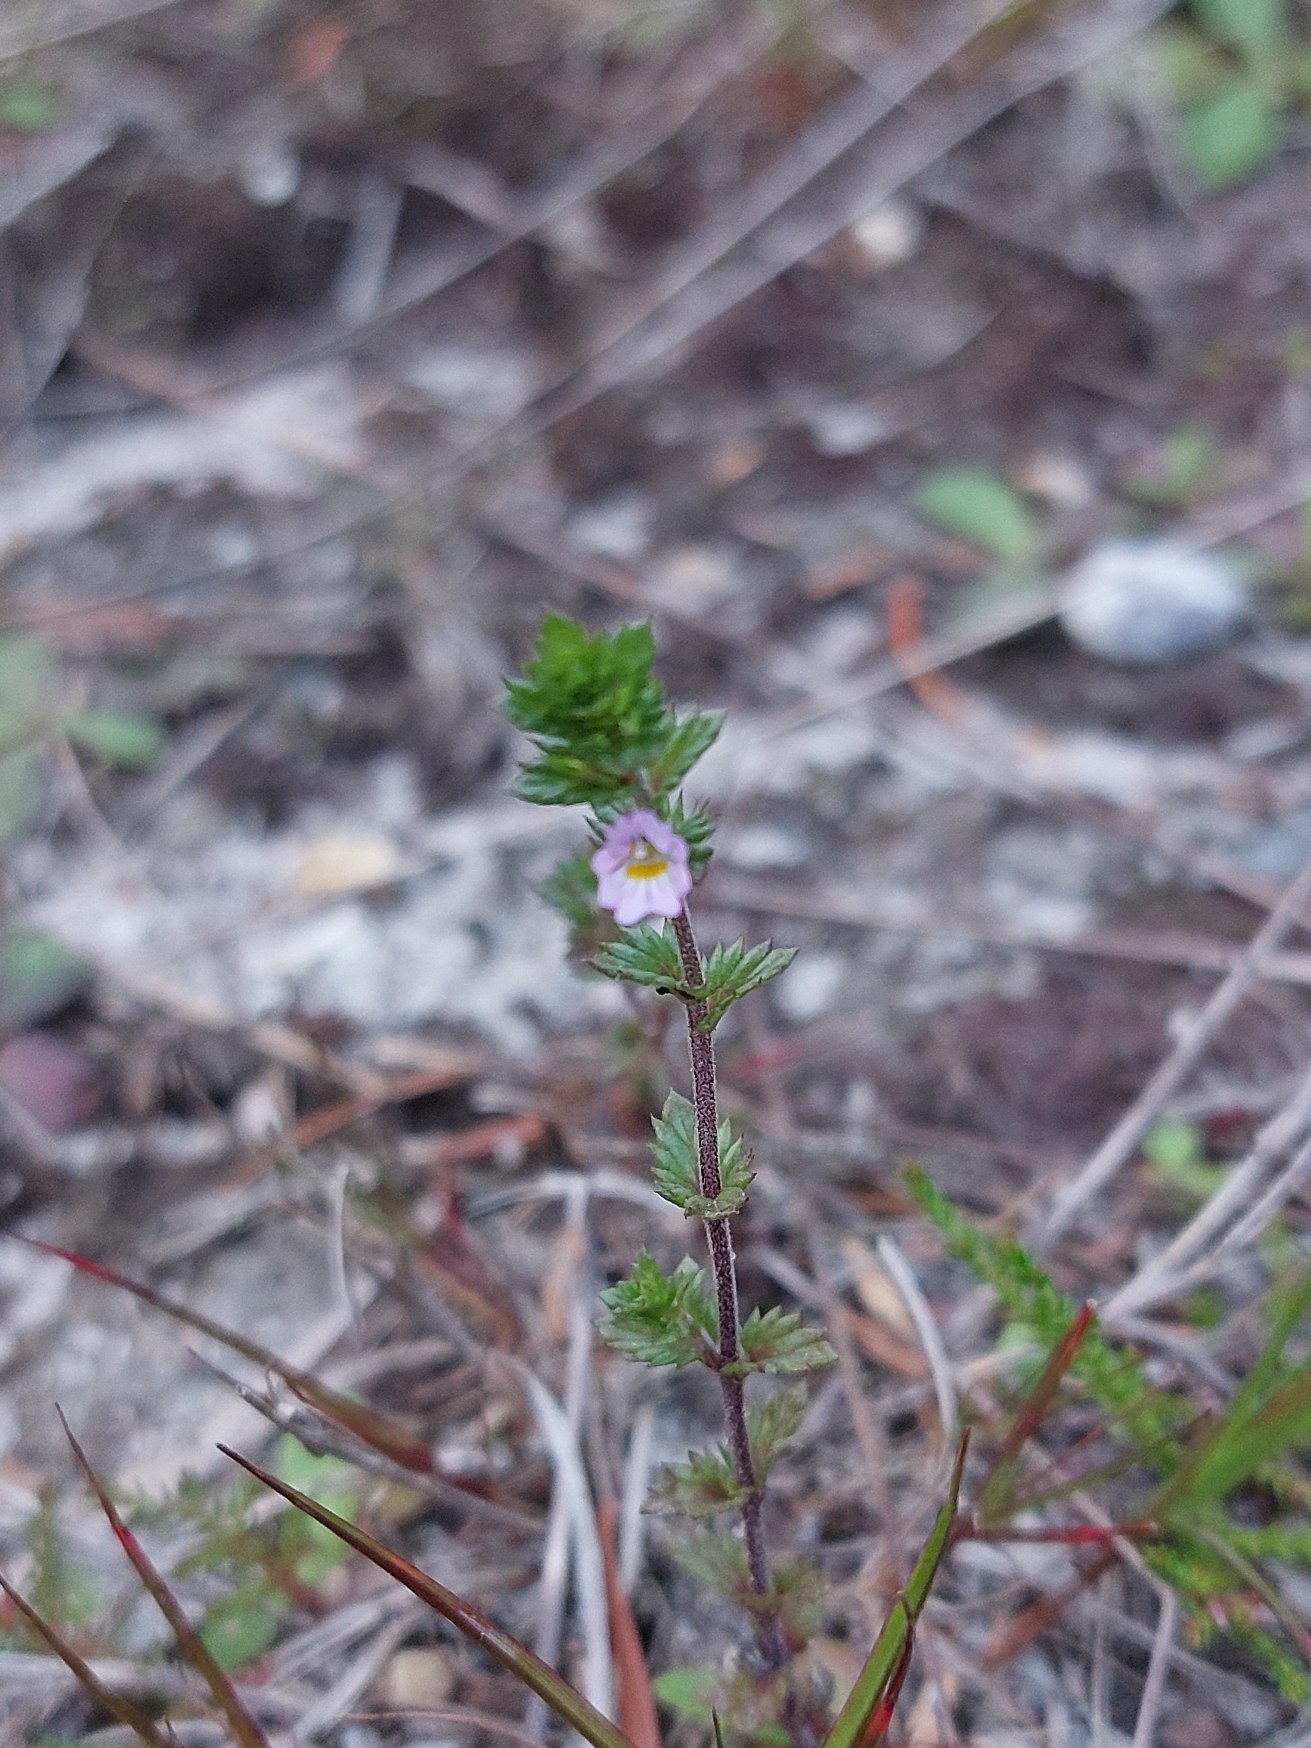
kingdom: Plantae
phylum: Tracheophyta
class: Magnoliopsida
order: Lamiales
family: Orobanchaceae
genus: Euphrasia
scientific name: Euphrasia stricta
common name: Spids øjentrøst
